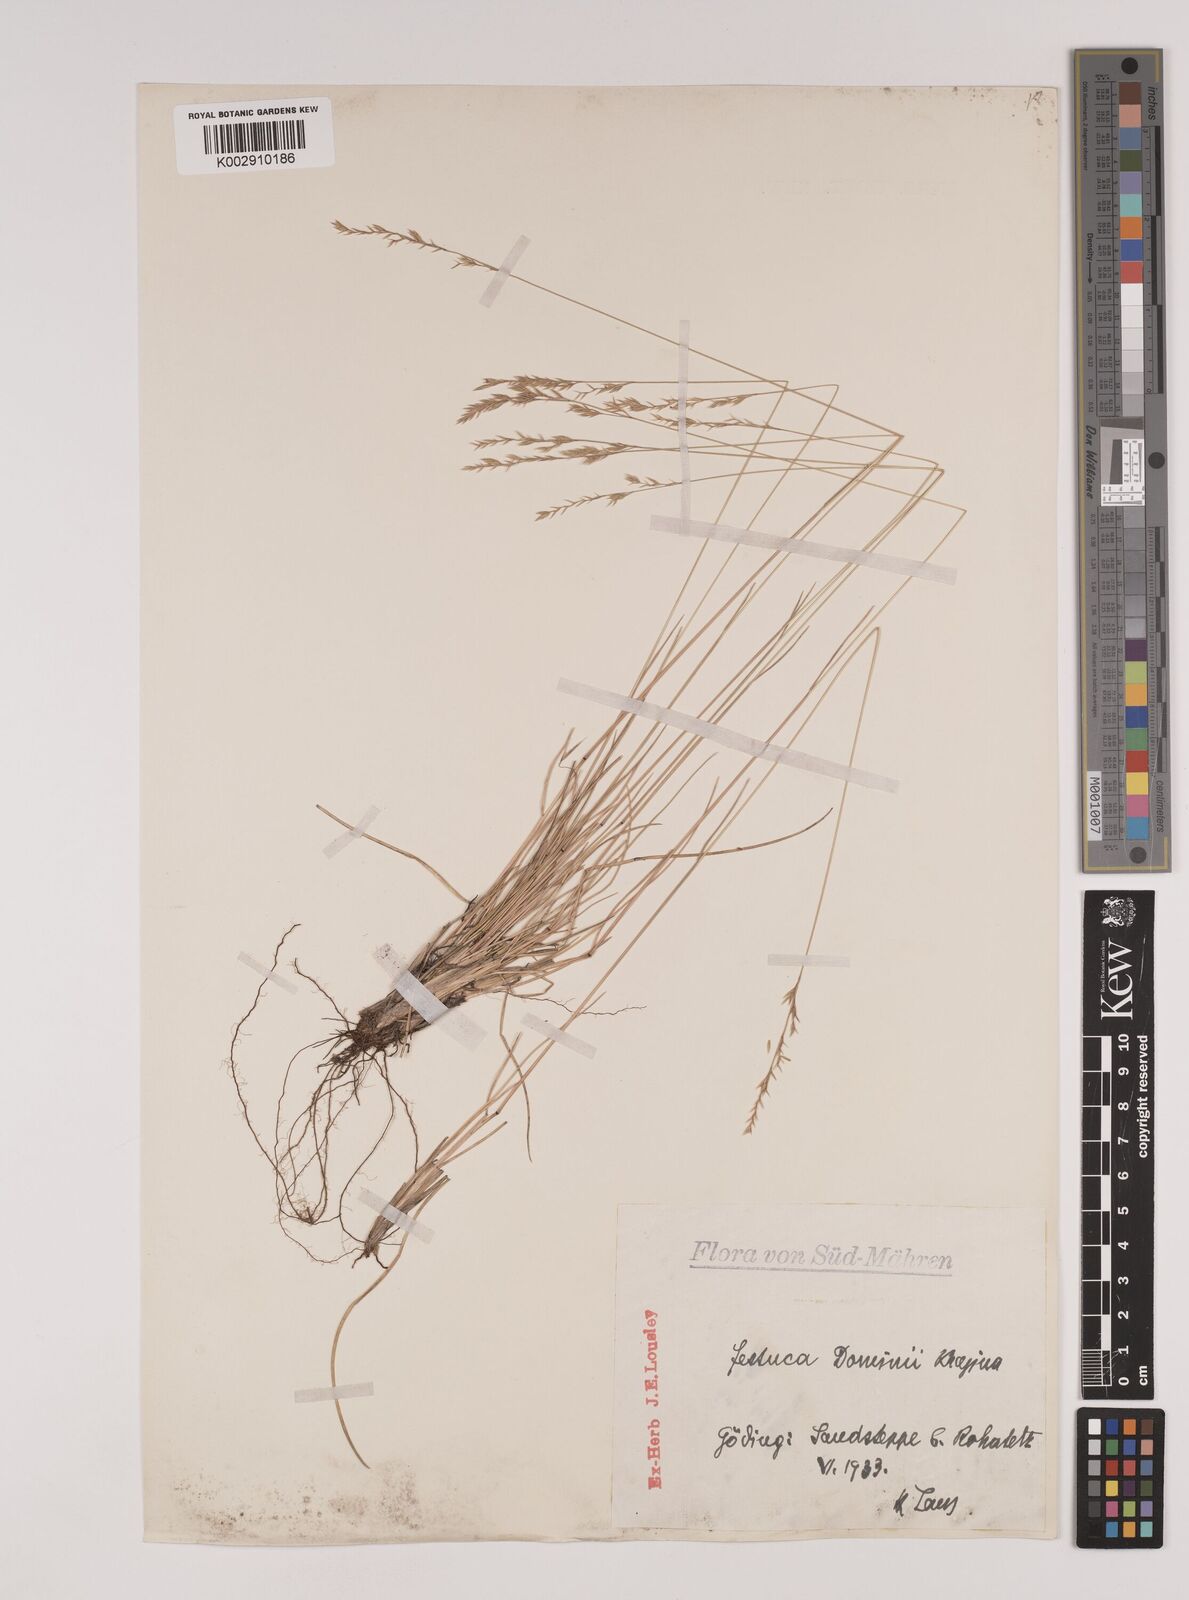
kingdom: Plantae
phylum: Tracheophyta
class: Liliopsida
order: Poales
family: Poaceae
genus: Festuca
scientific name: Festuca versicolor
